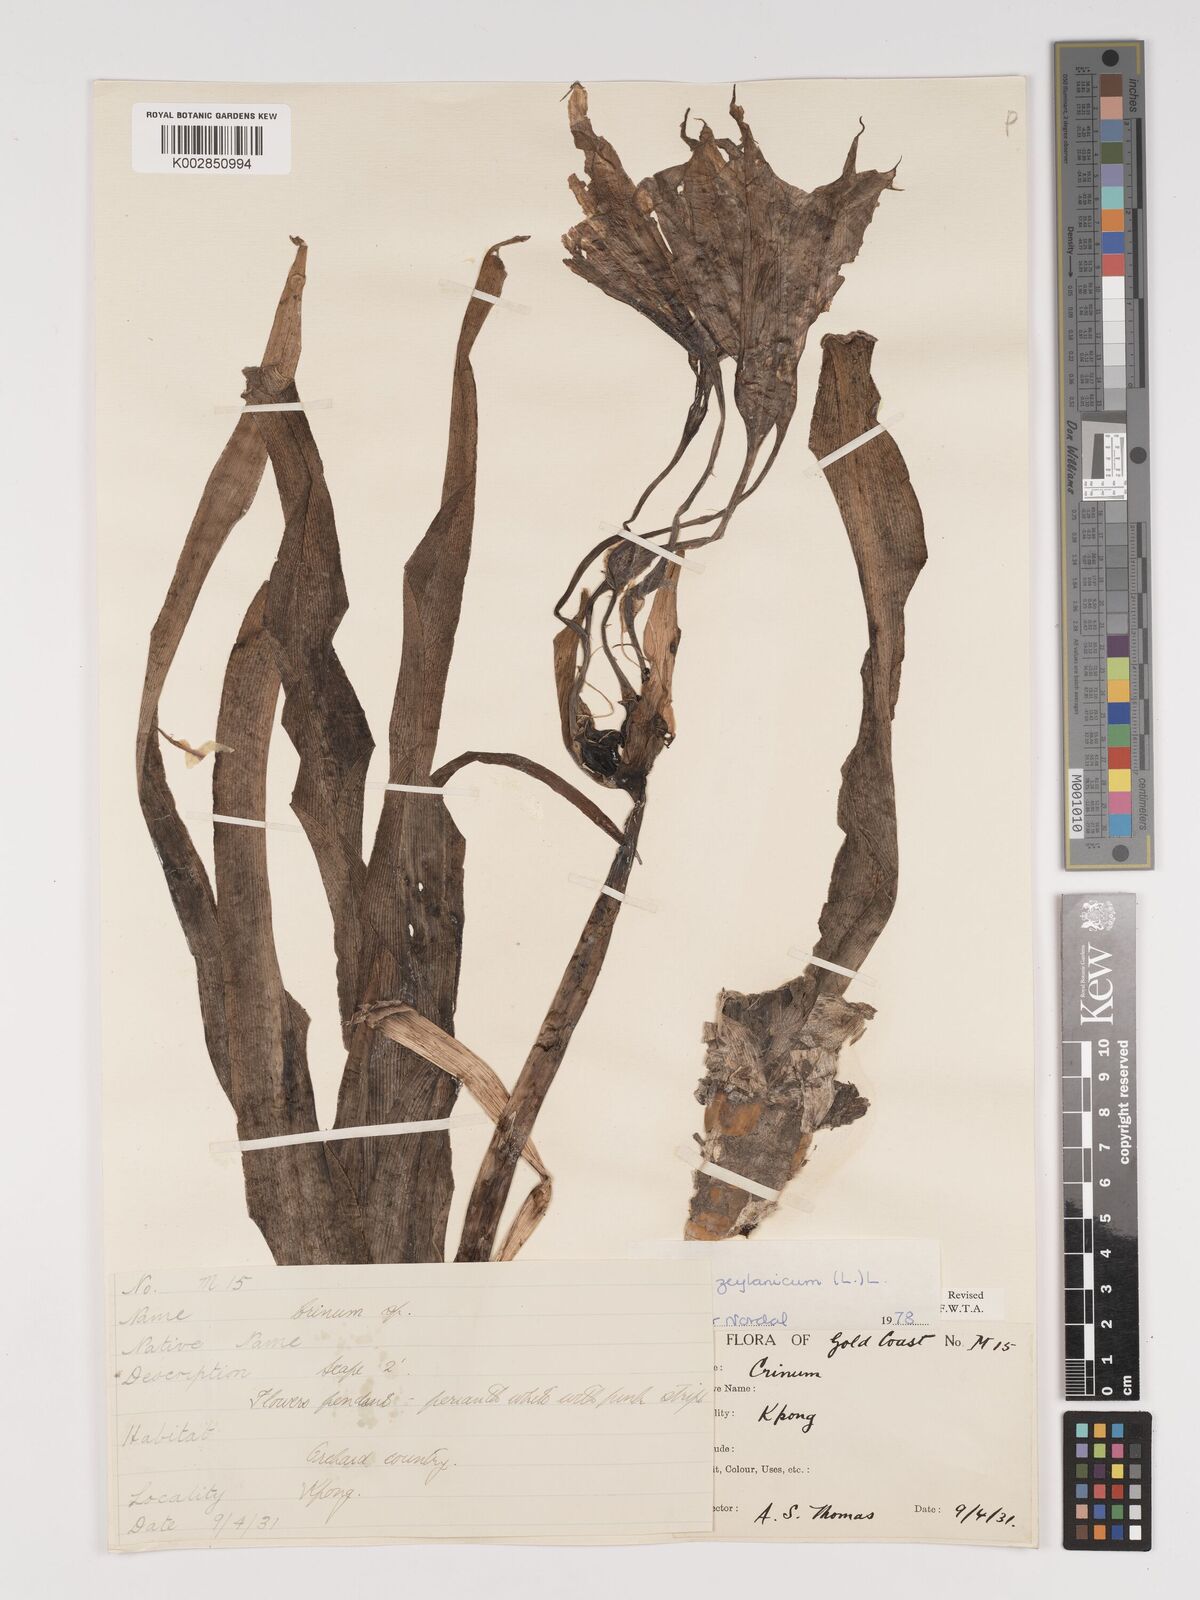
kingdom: Plantae
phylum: Tracheophyta
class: Liliopsida
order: Asparagales
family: Amaryllidaceae
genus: Crinum
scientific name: Crinum ornatum
